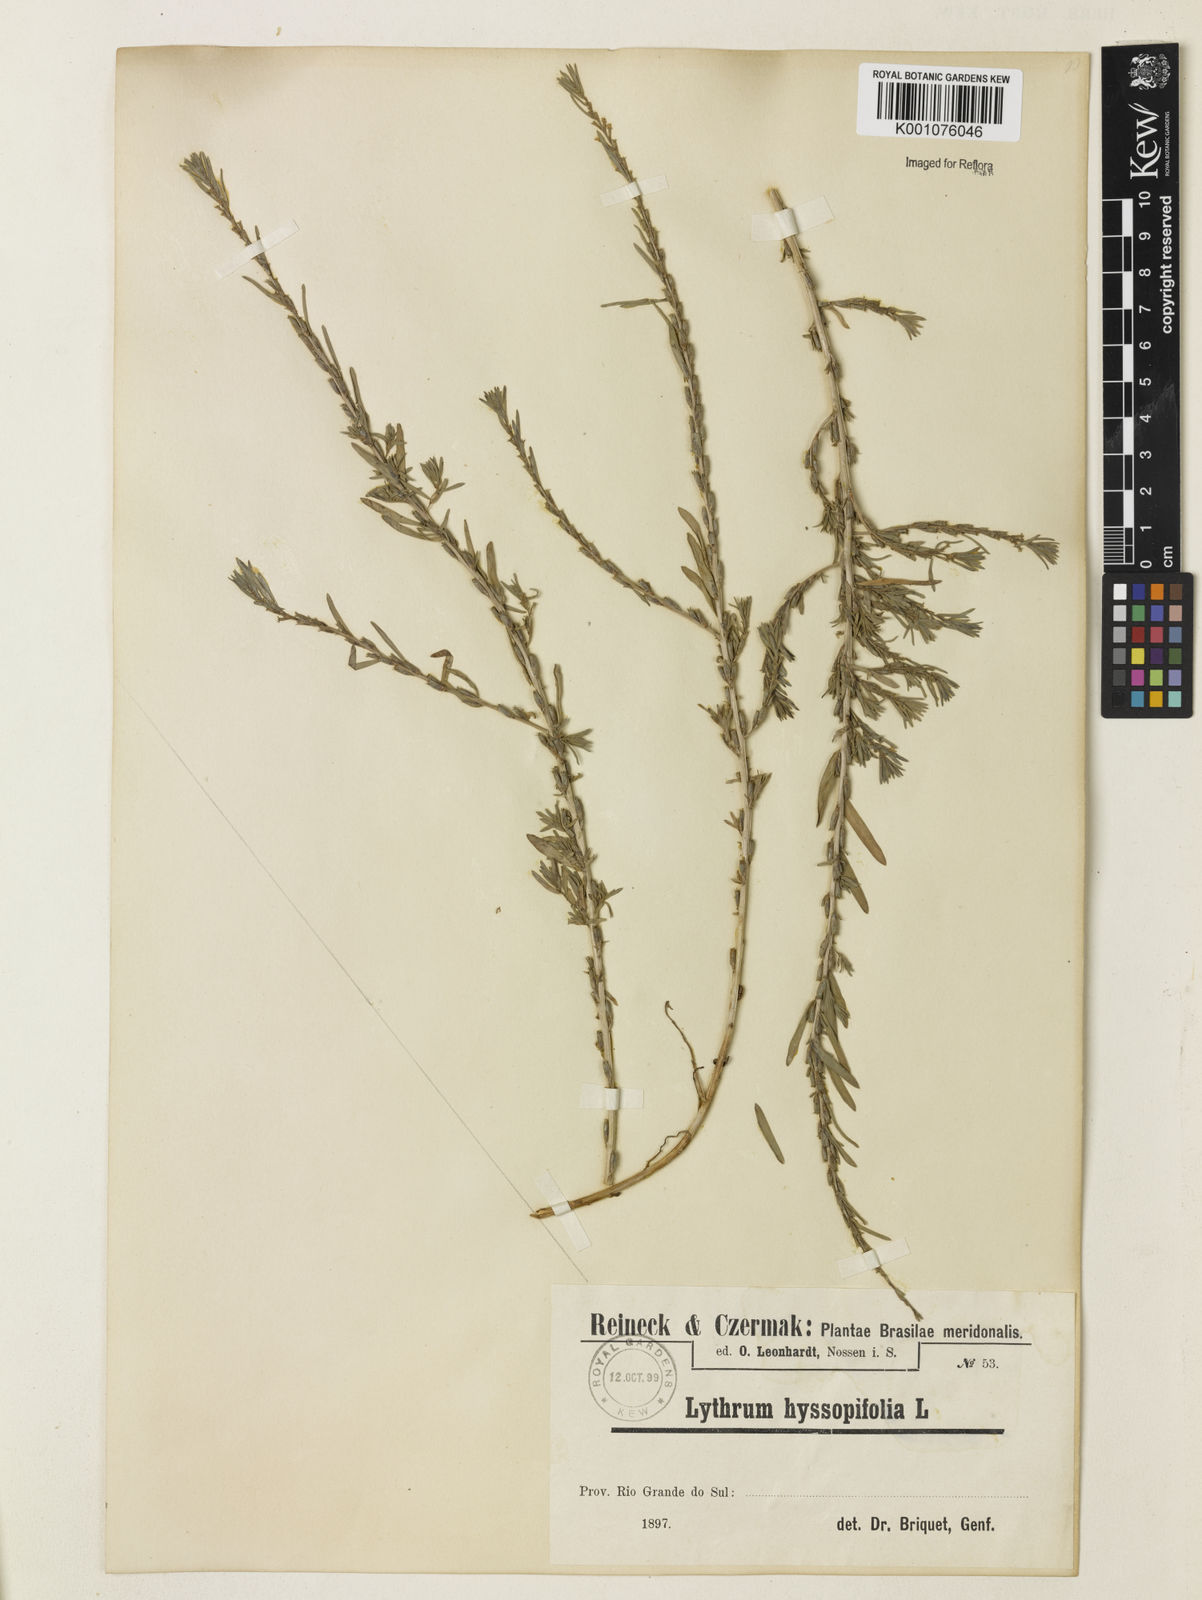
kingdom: Plantae
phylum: Tracheophyta
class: Magnoliopsida
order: Myrtales
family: Lythraceae
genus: Lythrum
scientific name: Lythrum hyssopifolia
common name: Grass-poly
